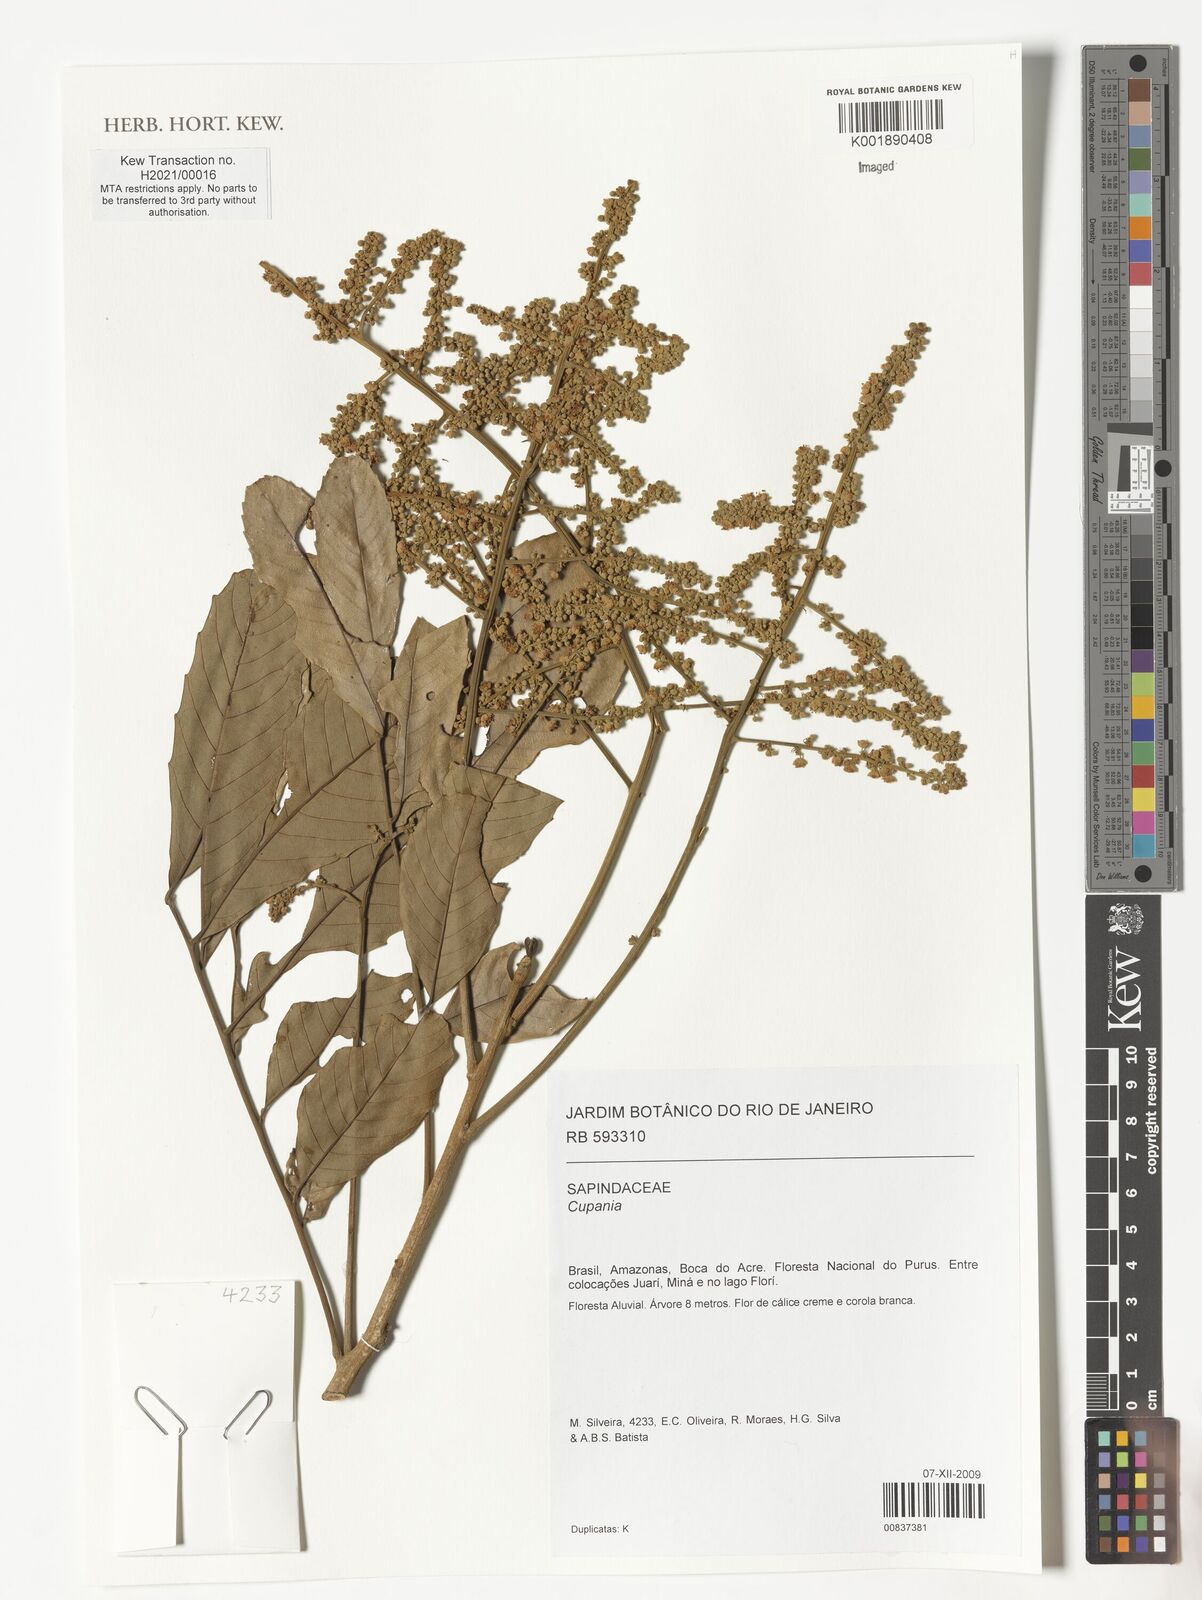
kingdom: Plantae
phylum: Tracheophyta
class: Magnoliopsida
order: Sapindales
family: Sapindaceae
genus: Cupania
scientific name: Cupania
